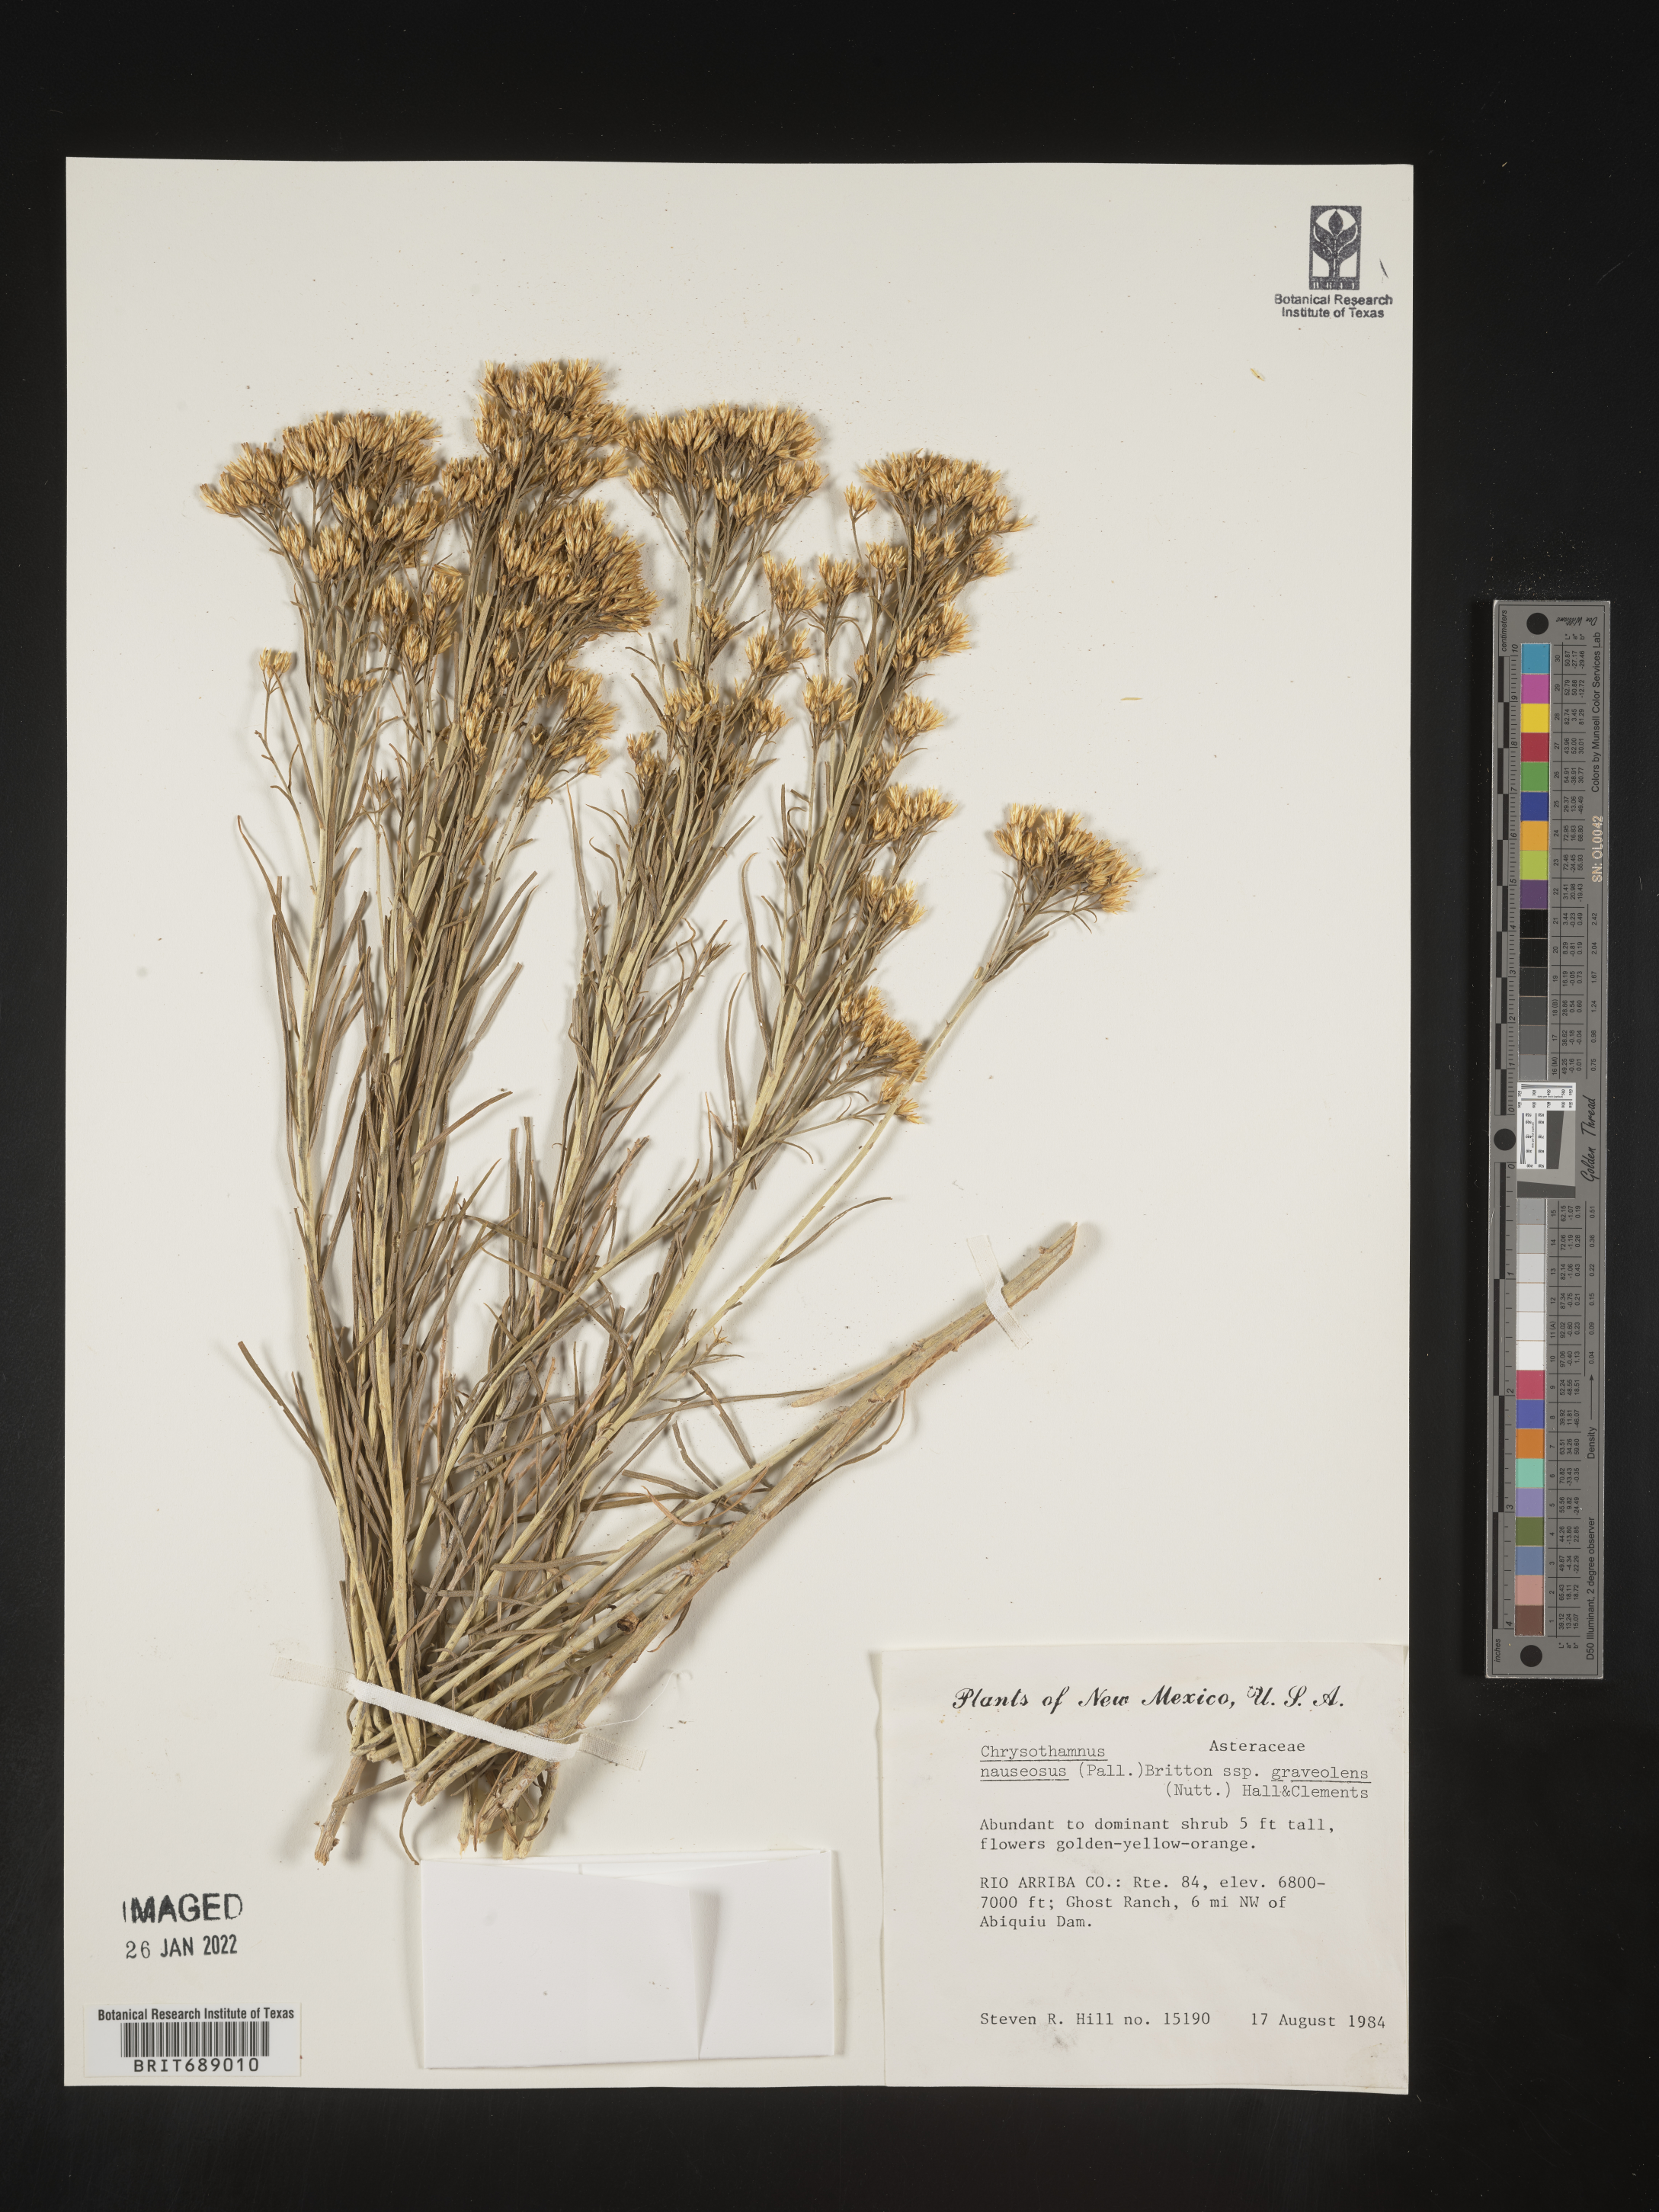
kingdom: Plantae
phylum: Tracheophyta
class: Magnoliopsida
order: Asterales
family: Asteraceae
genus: Ericameria
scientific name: Ericameria nauseosa
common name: Rubber rabbitbrush
